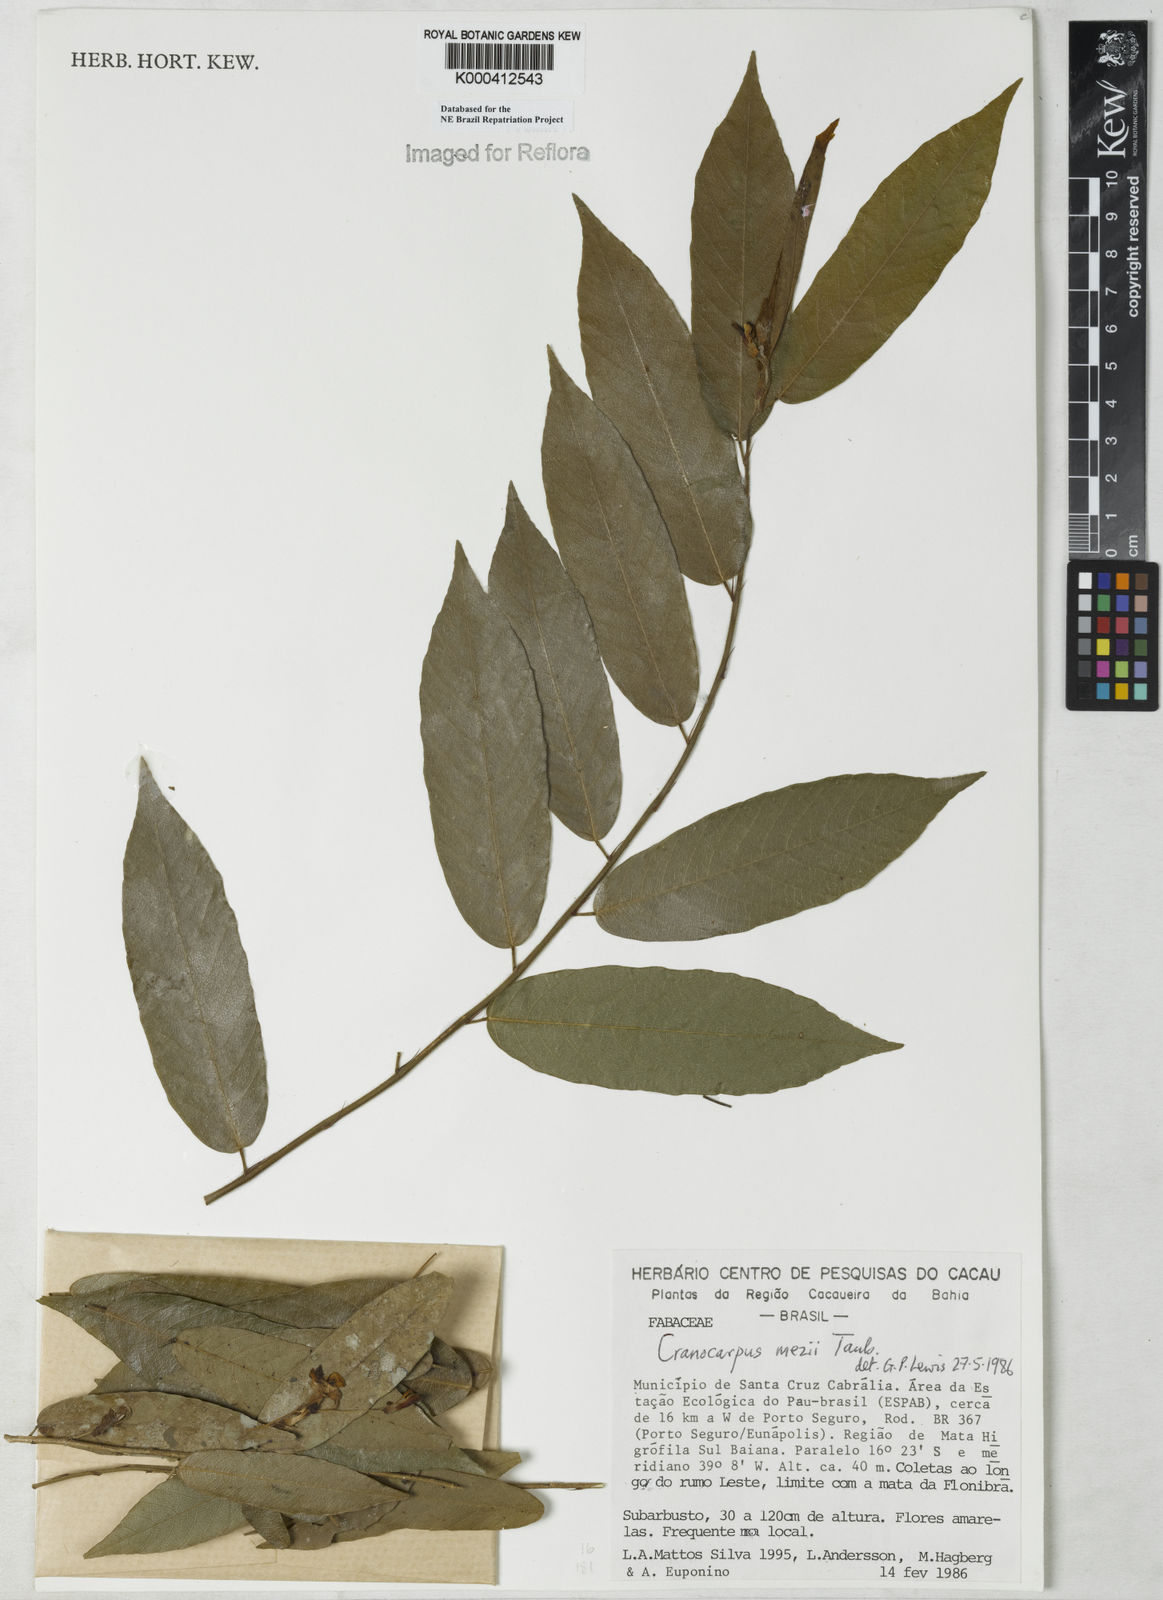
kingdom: Plantae
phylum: Tracheophyta
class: Magnoliopsida
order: Fabales
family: Fabaceae
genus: Cranocarpus
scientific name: Cranocarpus mezii
